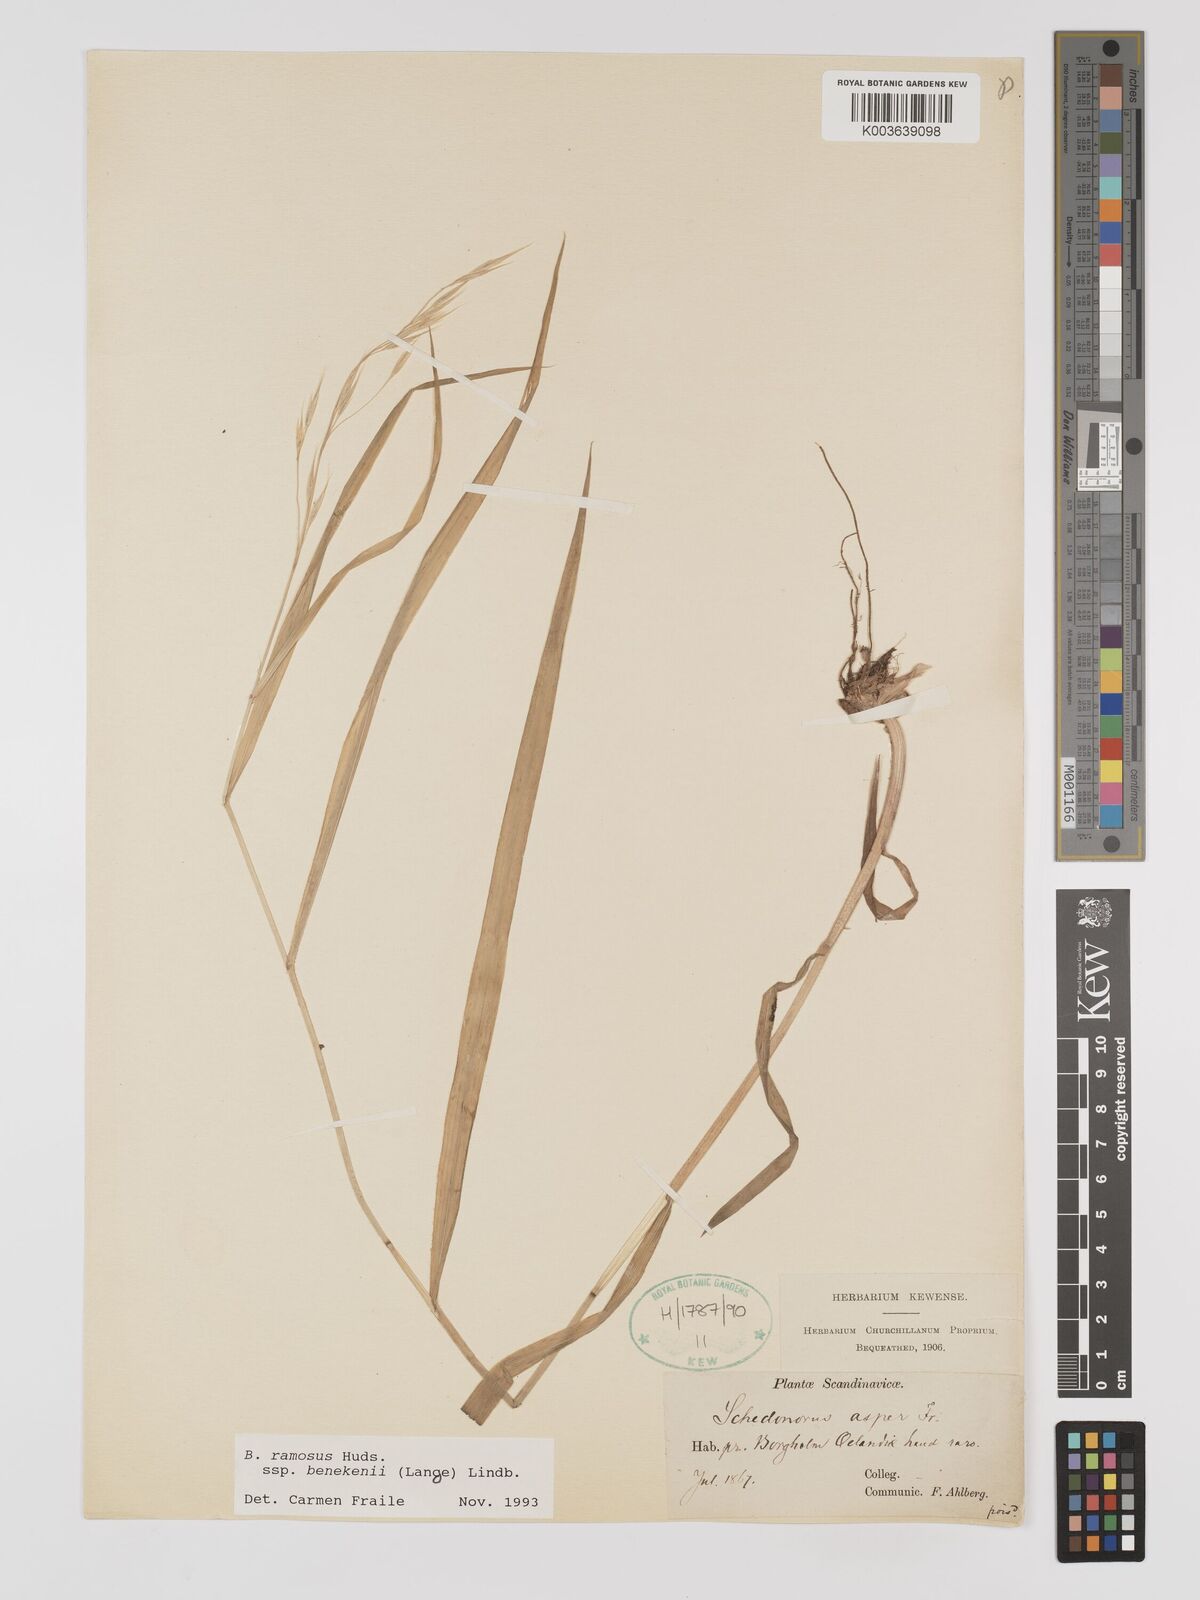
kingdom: Plantae
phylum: Tracheophyta
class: Liliopsida
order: Poales
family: Poaceae
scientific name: Poaceae
